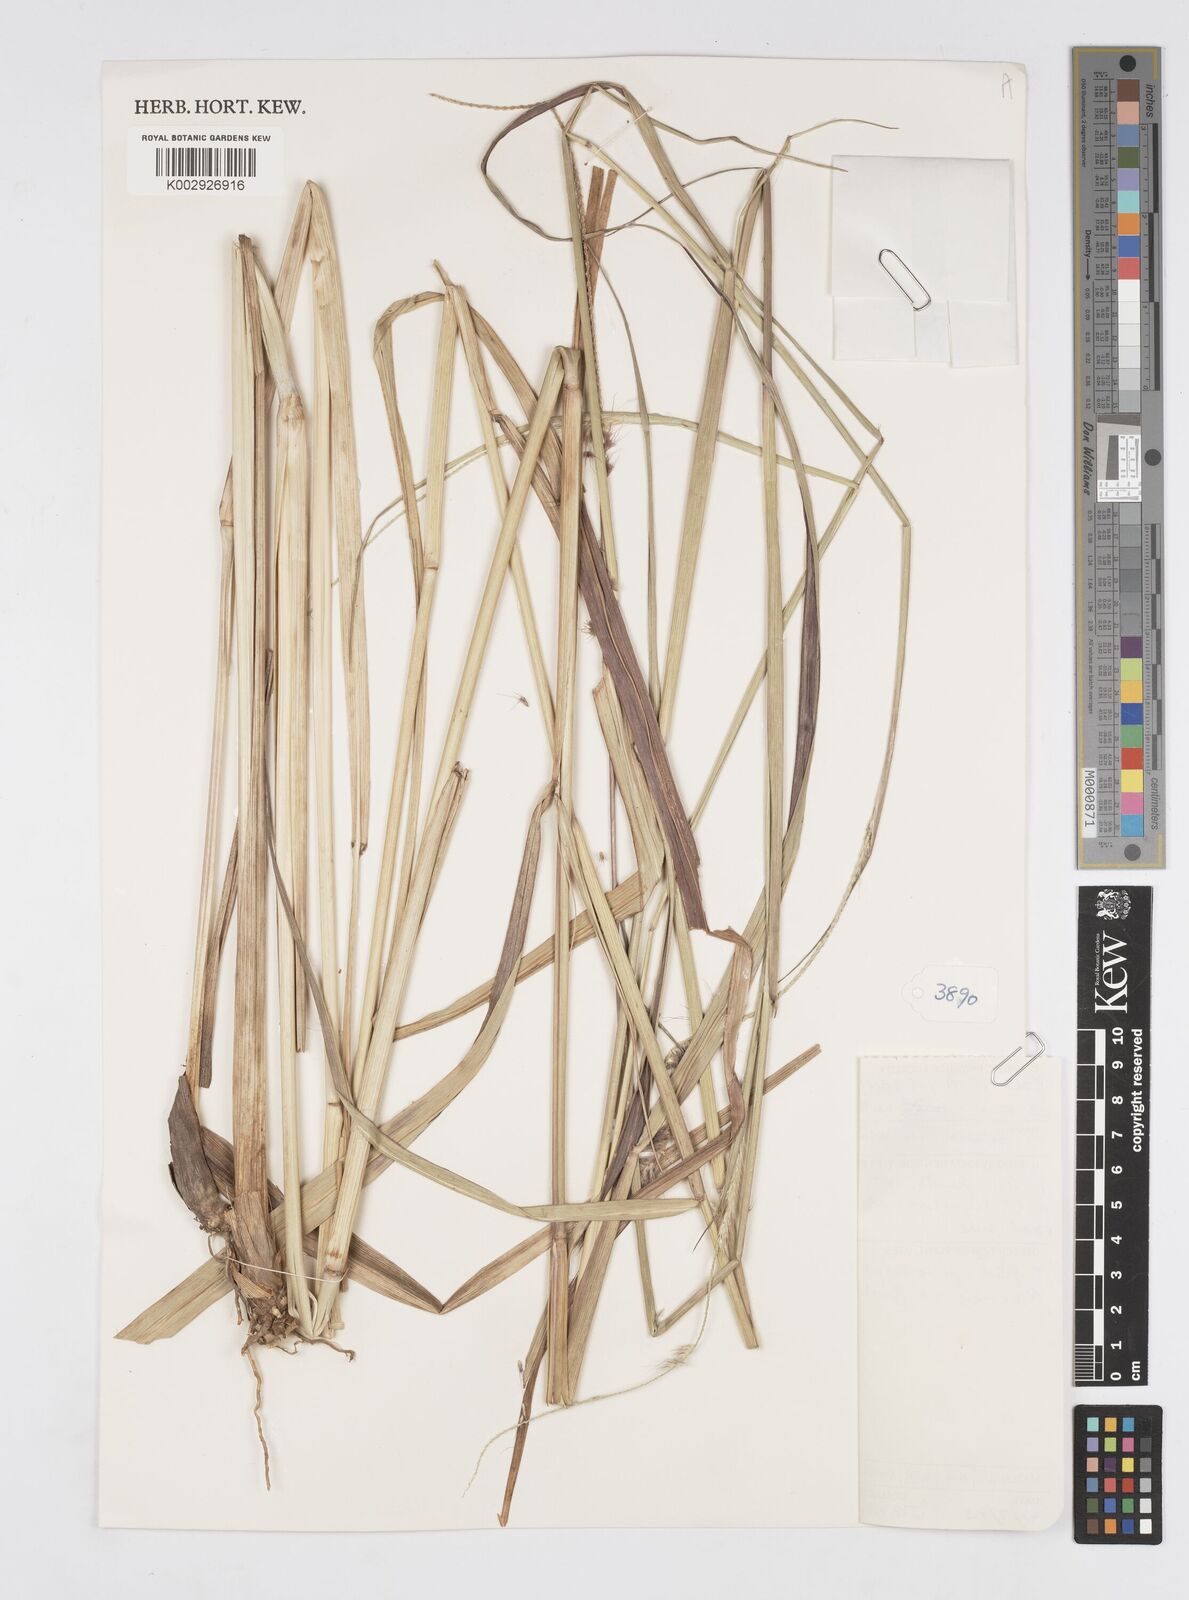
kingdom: Plantae
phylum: Tracheophyta
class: Liliopsida
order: Poales
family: Poaceae
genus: Setaria
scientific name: Setaria parviflora
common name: Knotroot bristle-grass
